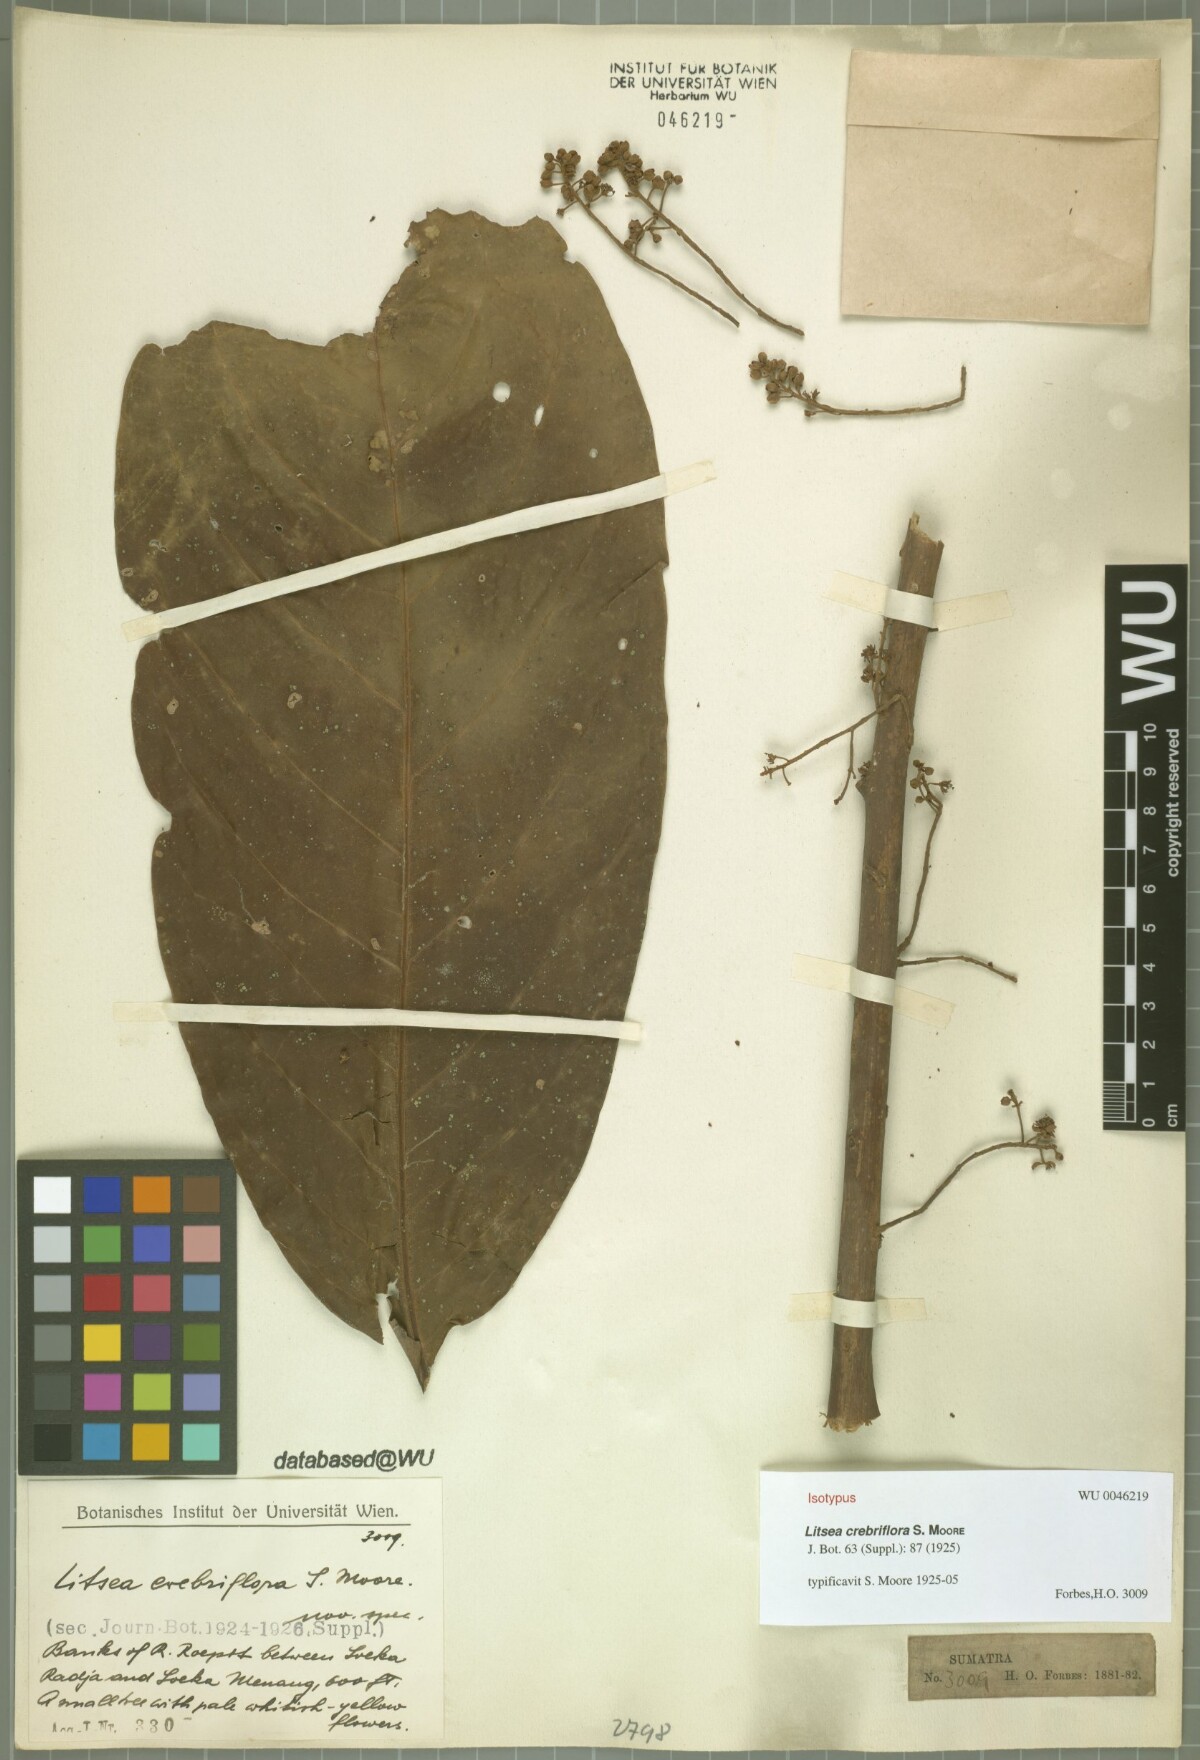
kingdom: Plantae
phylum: Tracheophyta
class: Magnoliopsida
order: Laurales
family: Lauraceae
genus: Litsea
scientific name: Litsea crebriflora
